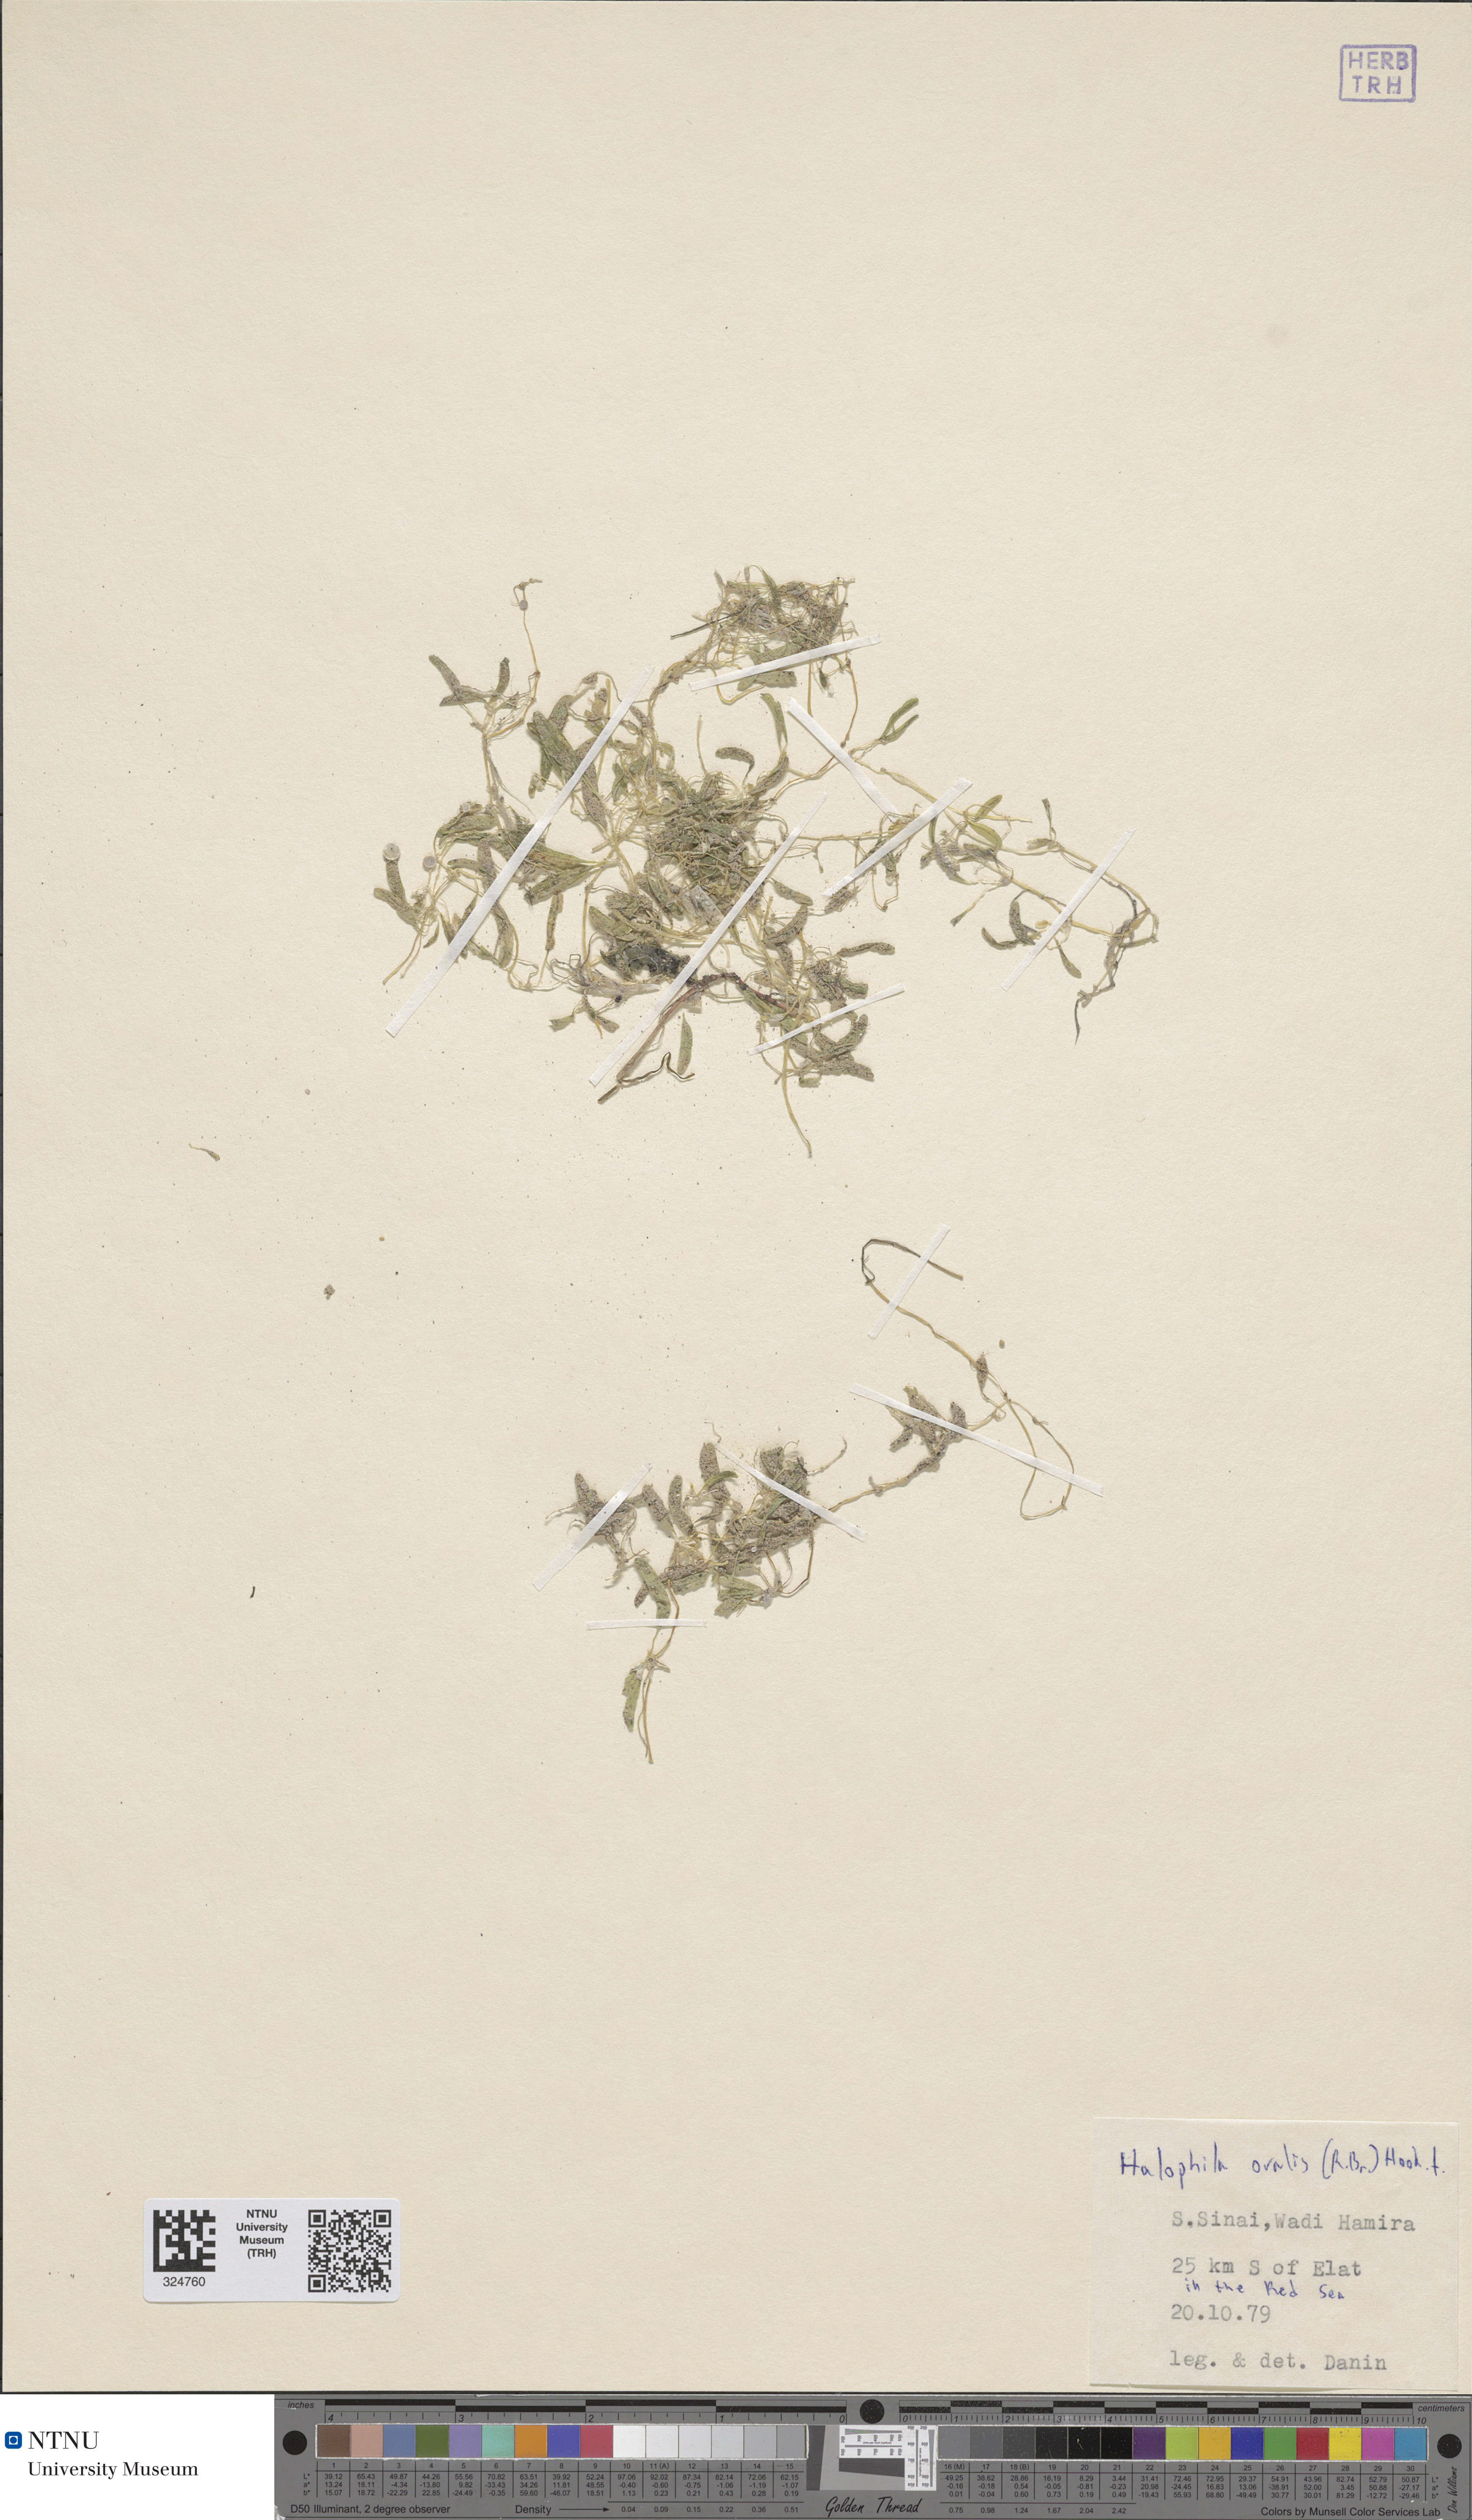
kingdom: Plantae
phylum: Tracheophyta
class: Liliopsida
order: Alismatales
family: Hydrocharitaceae
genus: Halophila
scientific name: Halophila ovalis
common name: Species code: ho
